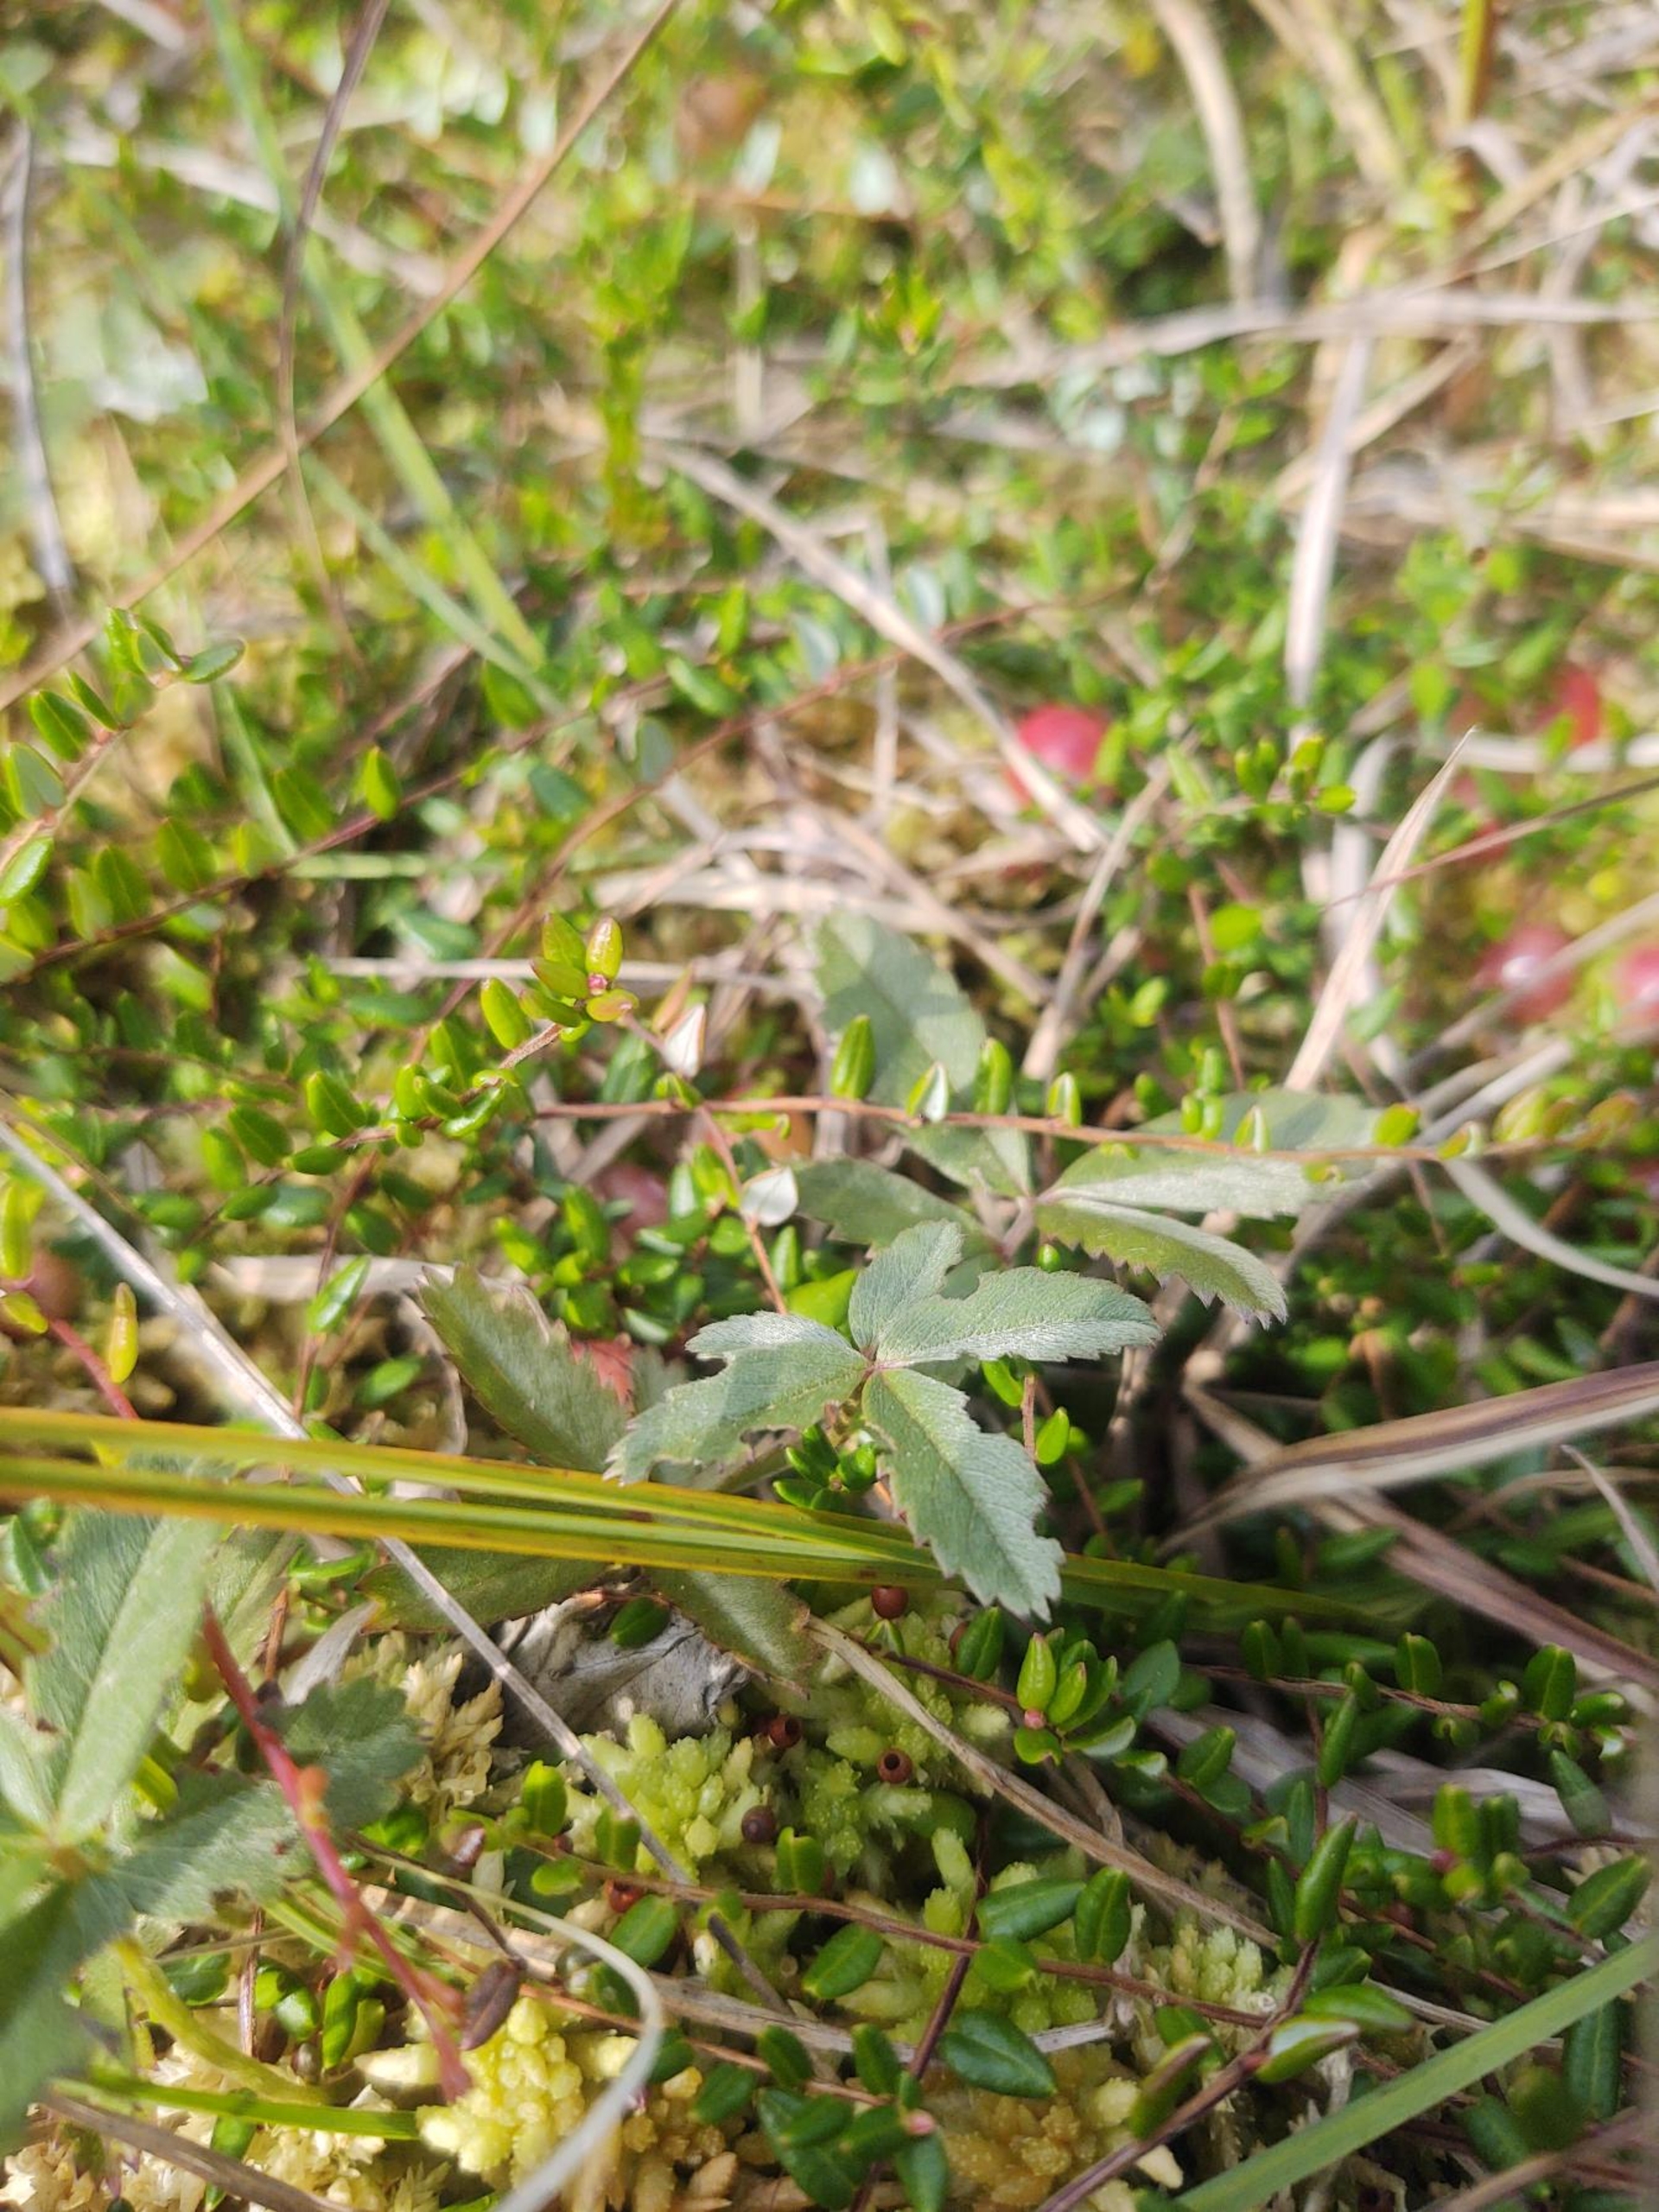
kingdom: Plantae
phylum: Tracheophyta
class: Magnoliopsida
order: Rosales
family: Rosaceae
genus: Comarum
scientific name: Comarum palustre
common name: Kragefod
